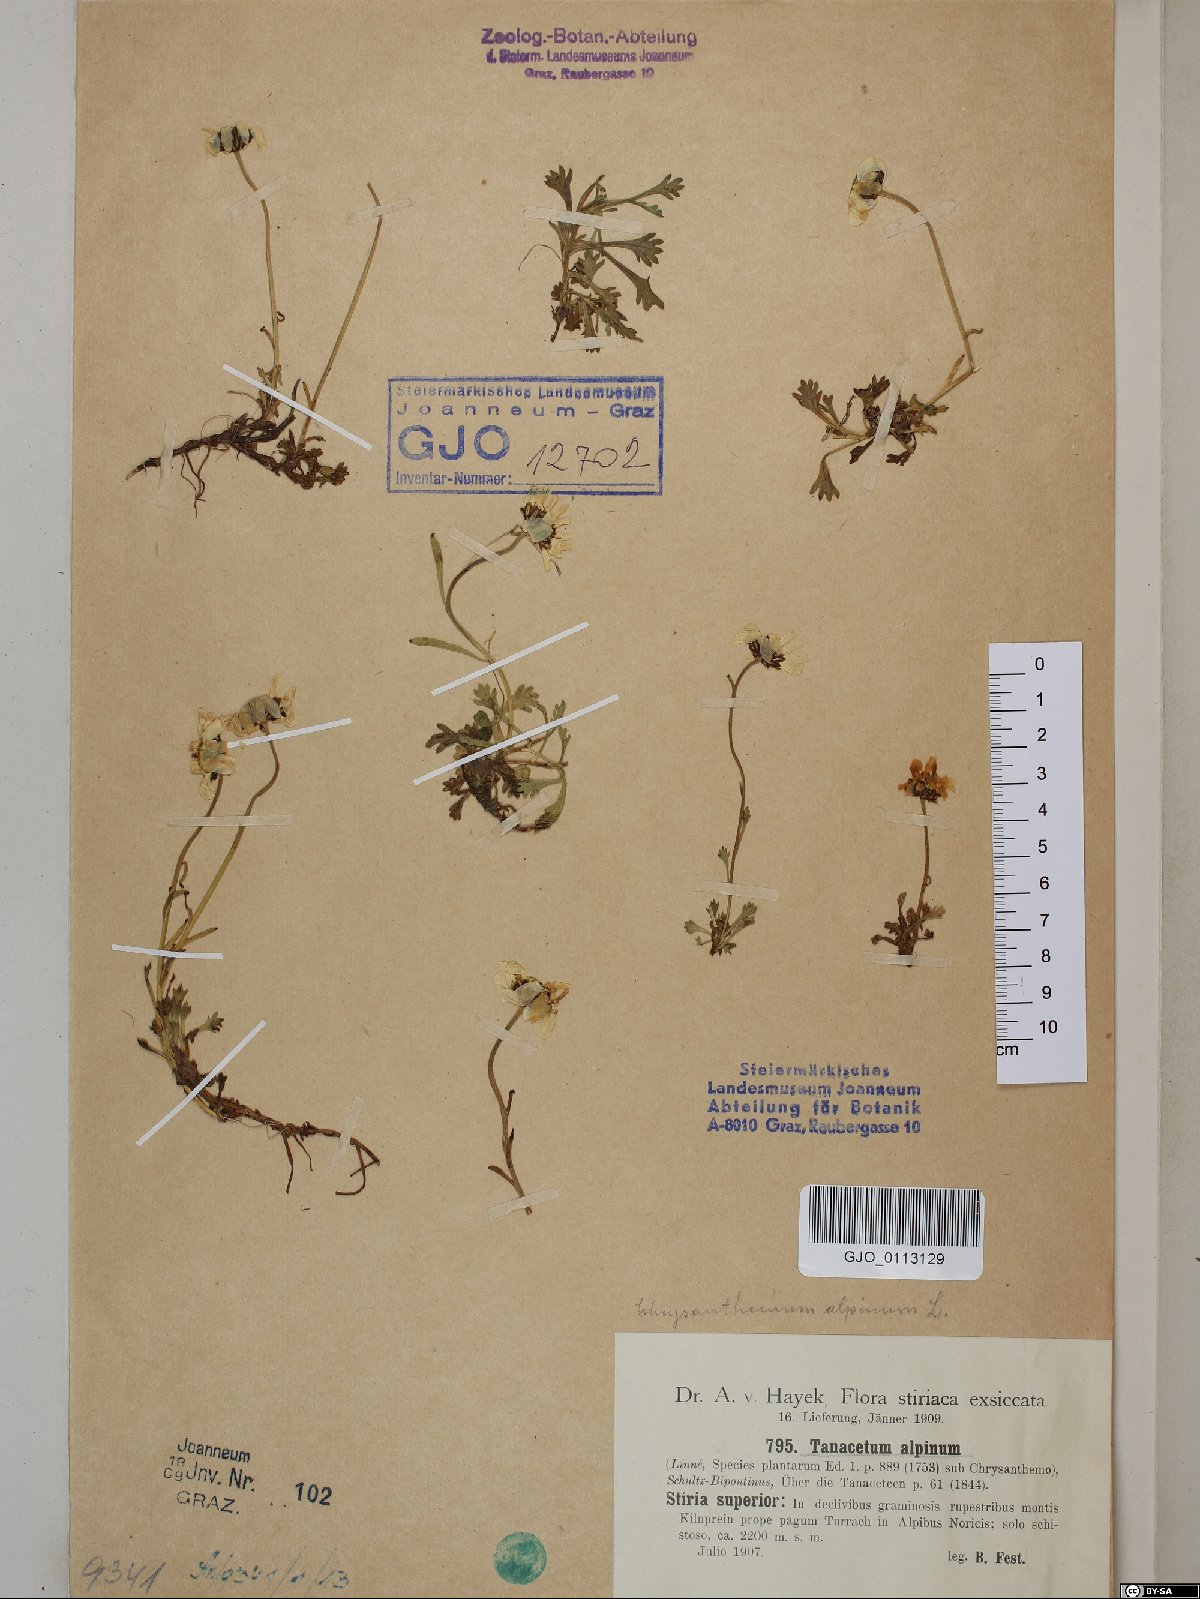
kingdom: Plantae
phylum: Tracheophyta
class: Magnoliopsida
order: Asterales
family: Asteraceae
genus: Leucanthemopsis
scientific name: Leucanthemopsis alpina
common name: Alpine moon daisy
